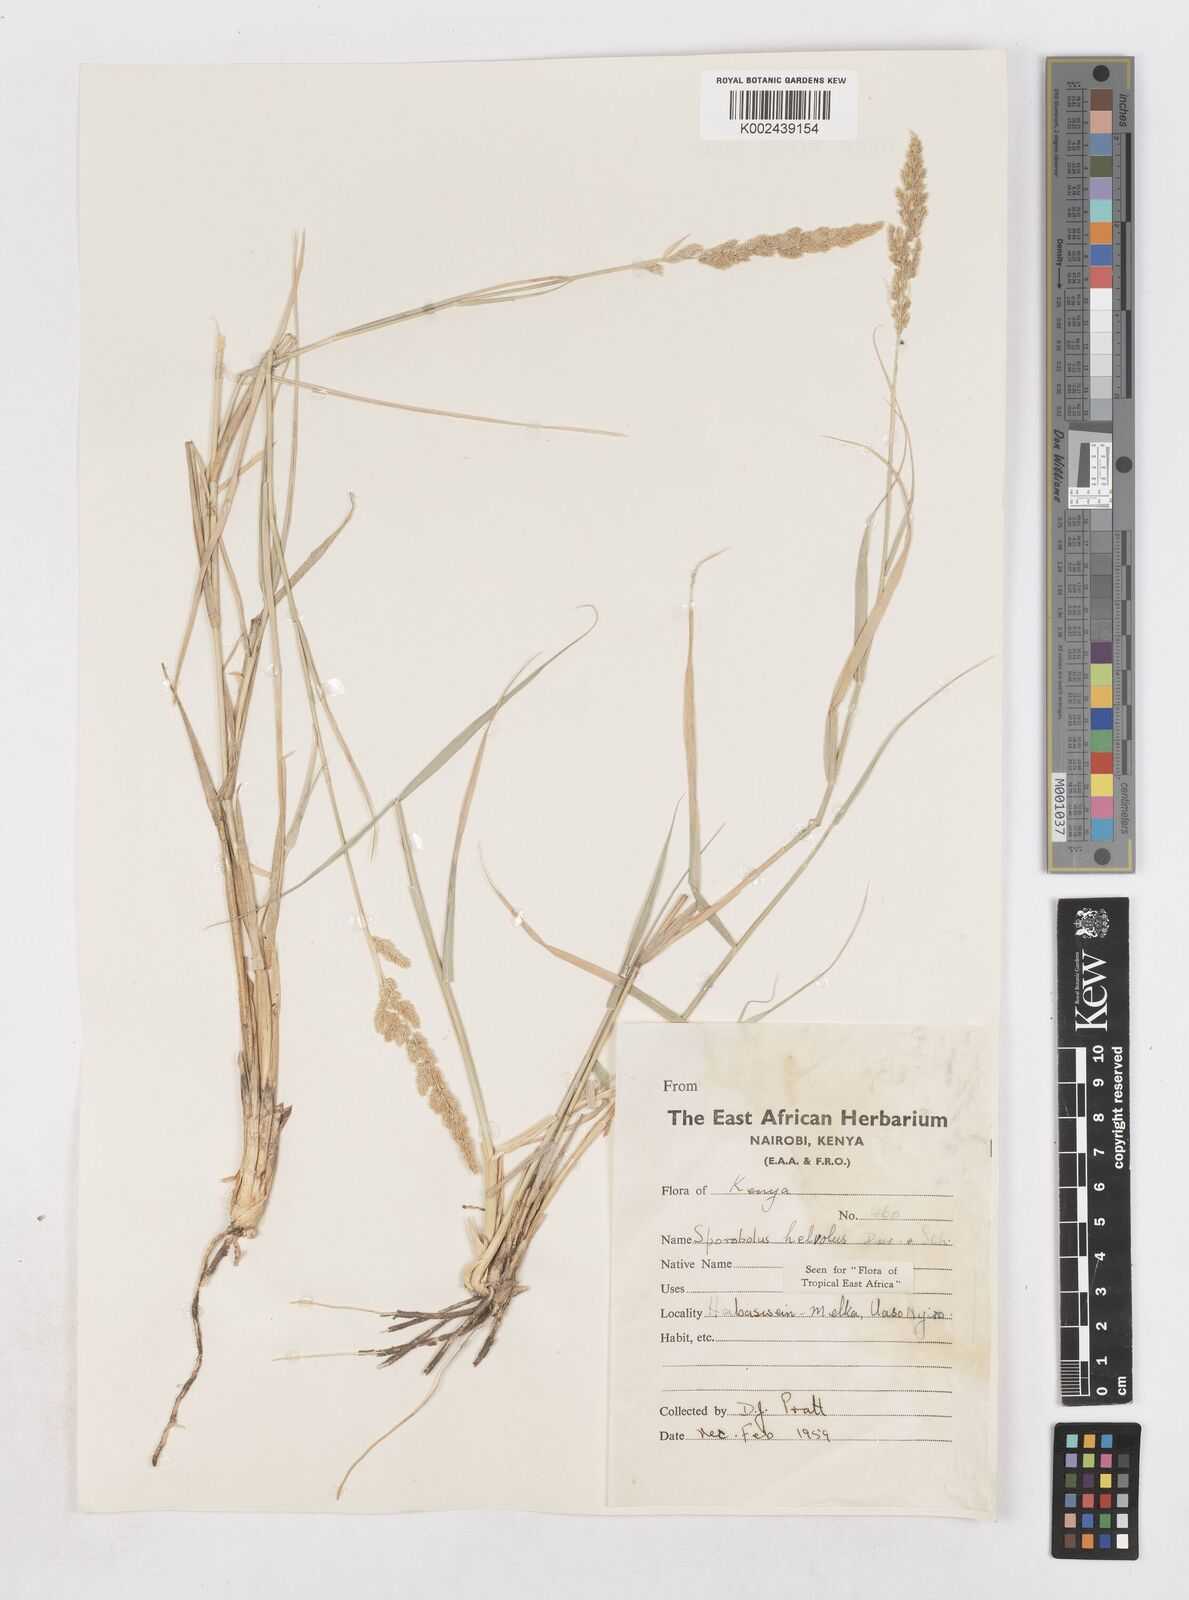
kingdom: Plantae
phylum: Tracheophyta
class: Liliopsida
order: Poales
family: Poaceae
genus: Sporobolus
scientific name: Sporobolus helvolus
